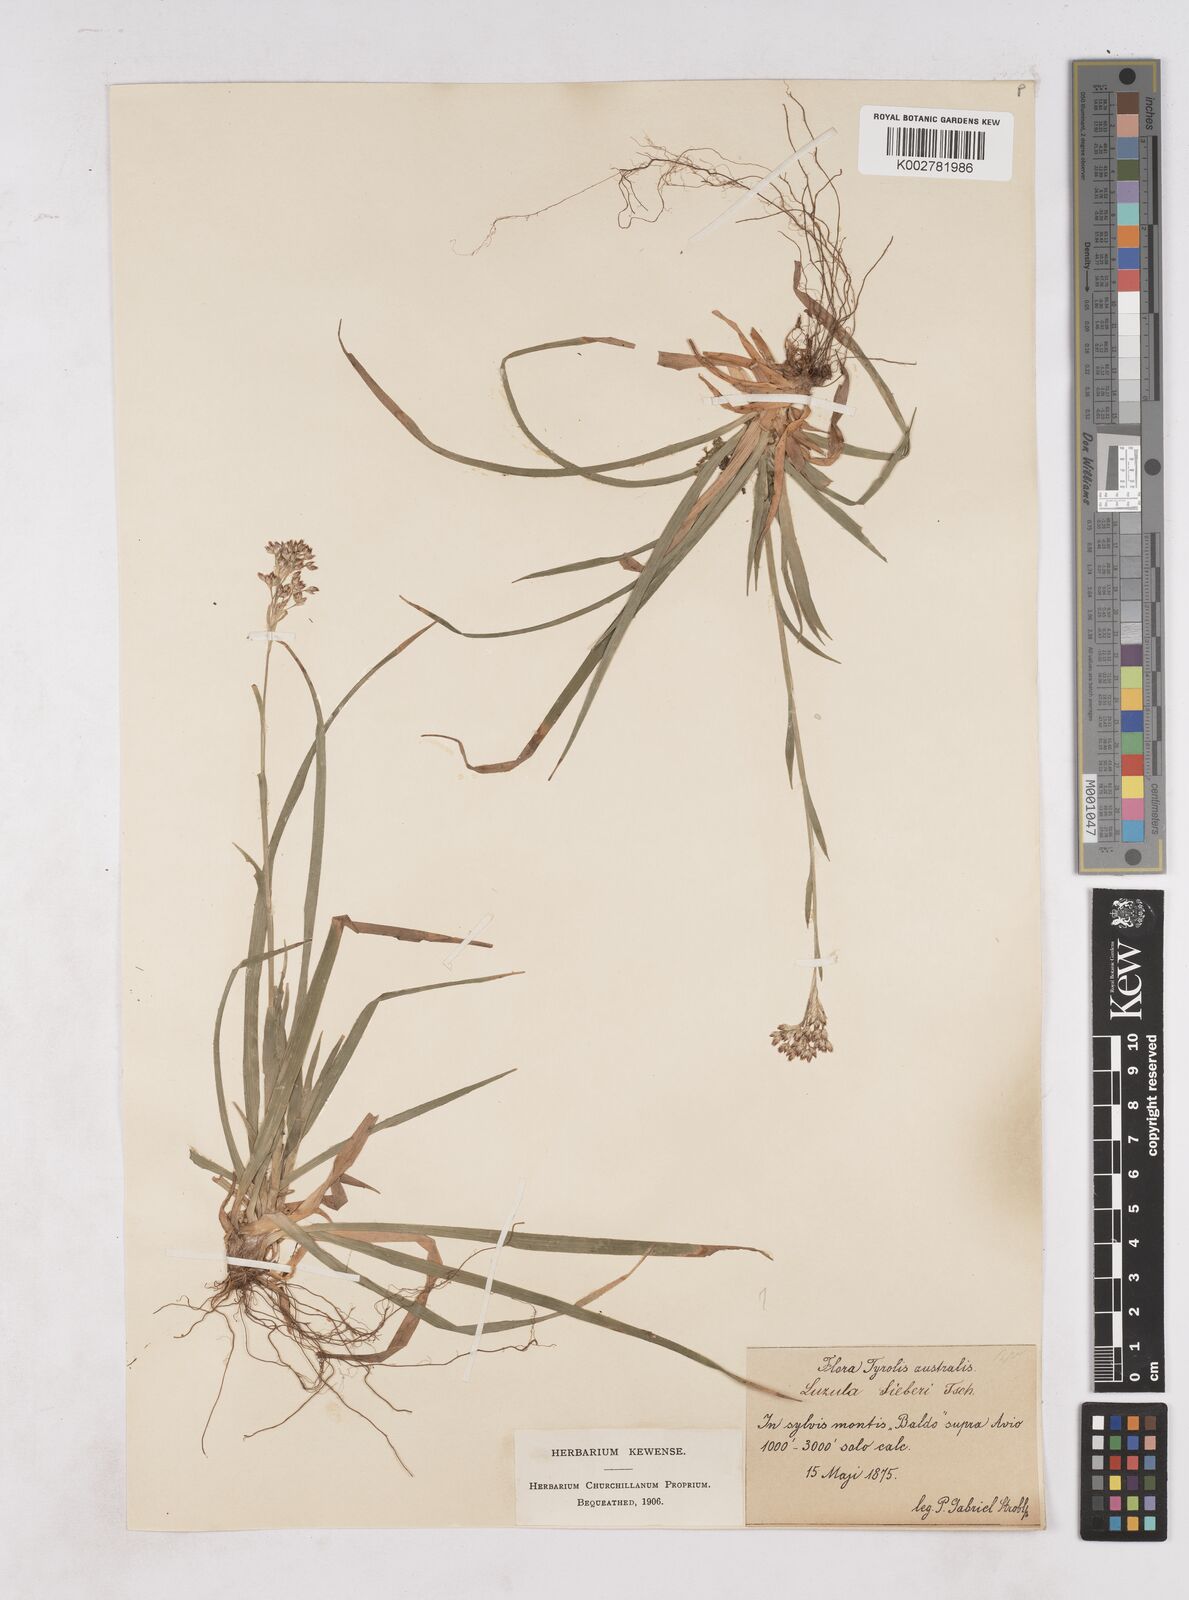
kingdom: Plantae
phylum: Tracheophyta
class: Liliopsida
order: Poales
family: Juncaceae
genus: Luzula
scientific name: Luzula sylvatica
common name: Great wood-rush
